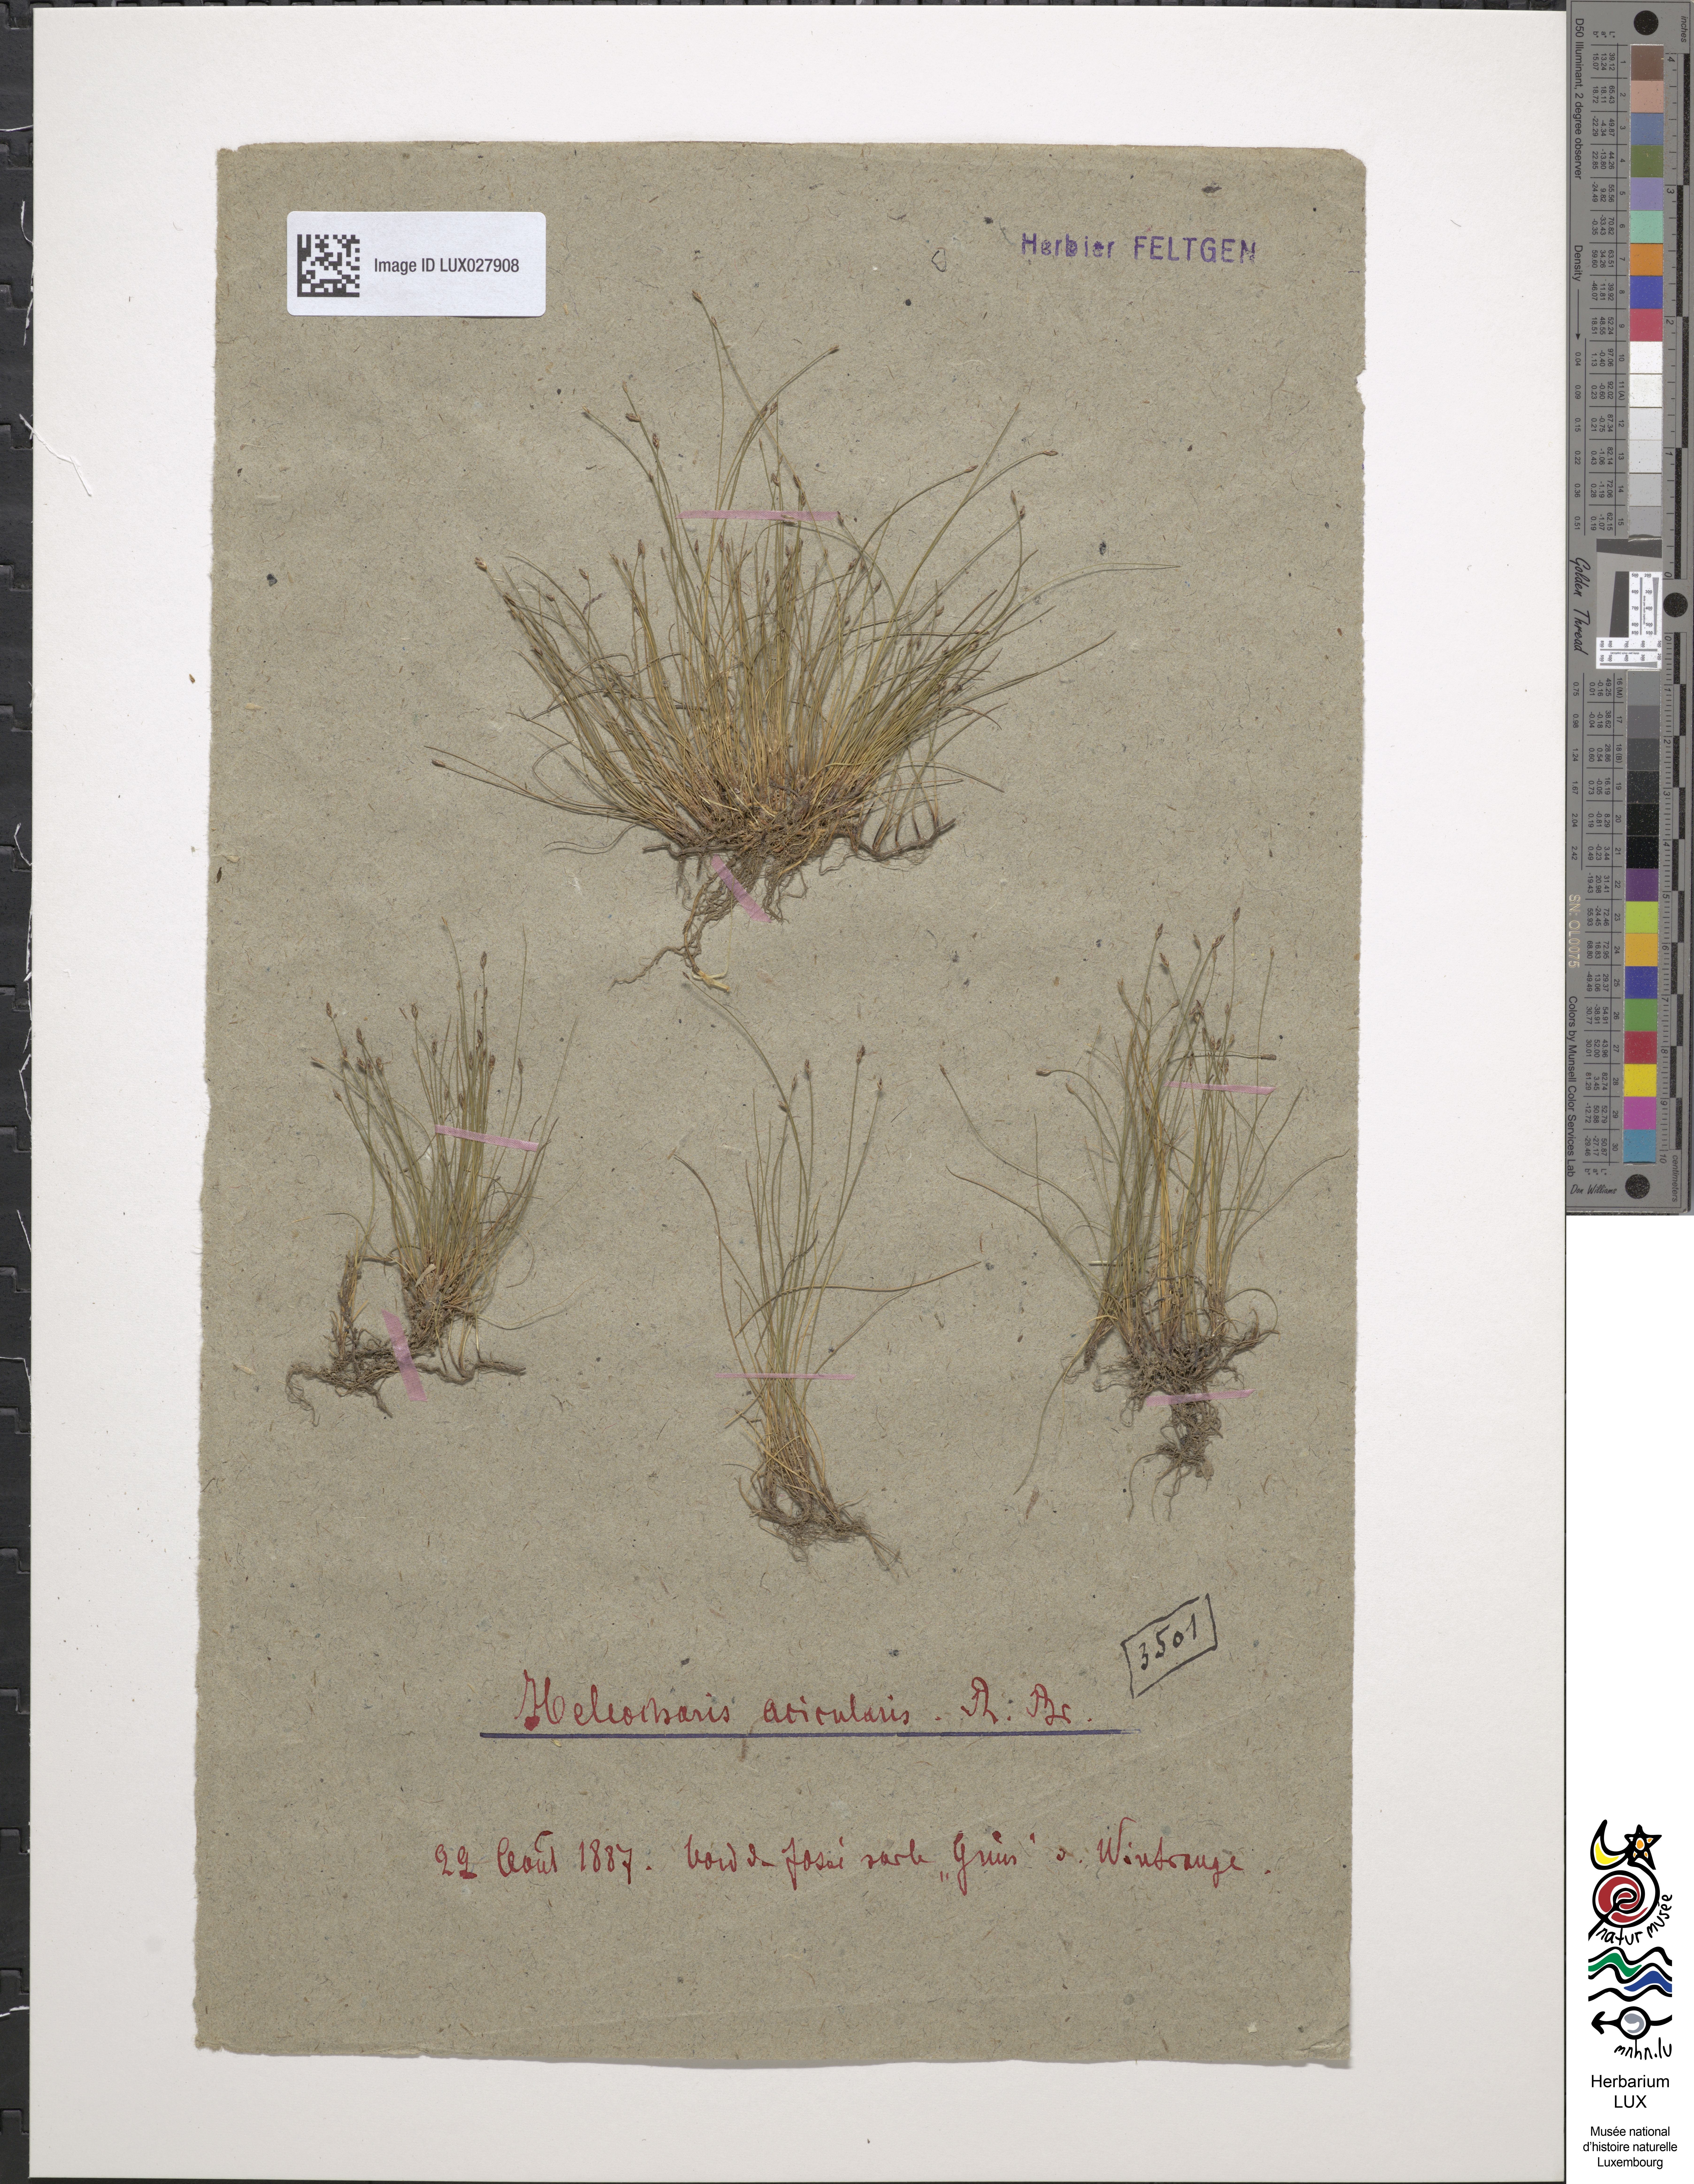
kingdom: Plantae
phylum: Tracheophyta
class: Liliopsida
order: Poales
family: Cyperaceae
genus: Eleocharis
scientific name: Eleocharis acicularis
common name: Needle spike-rush
